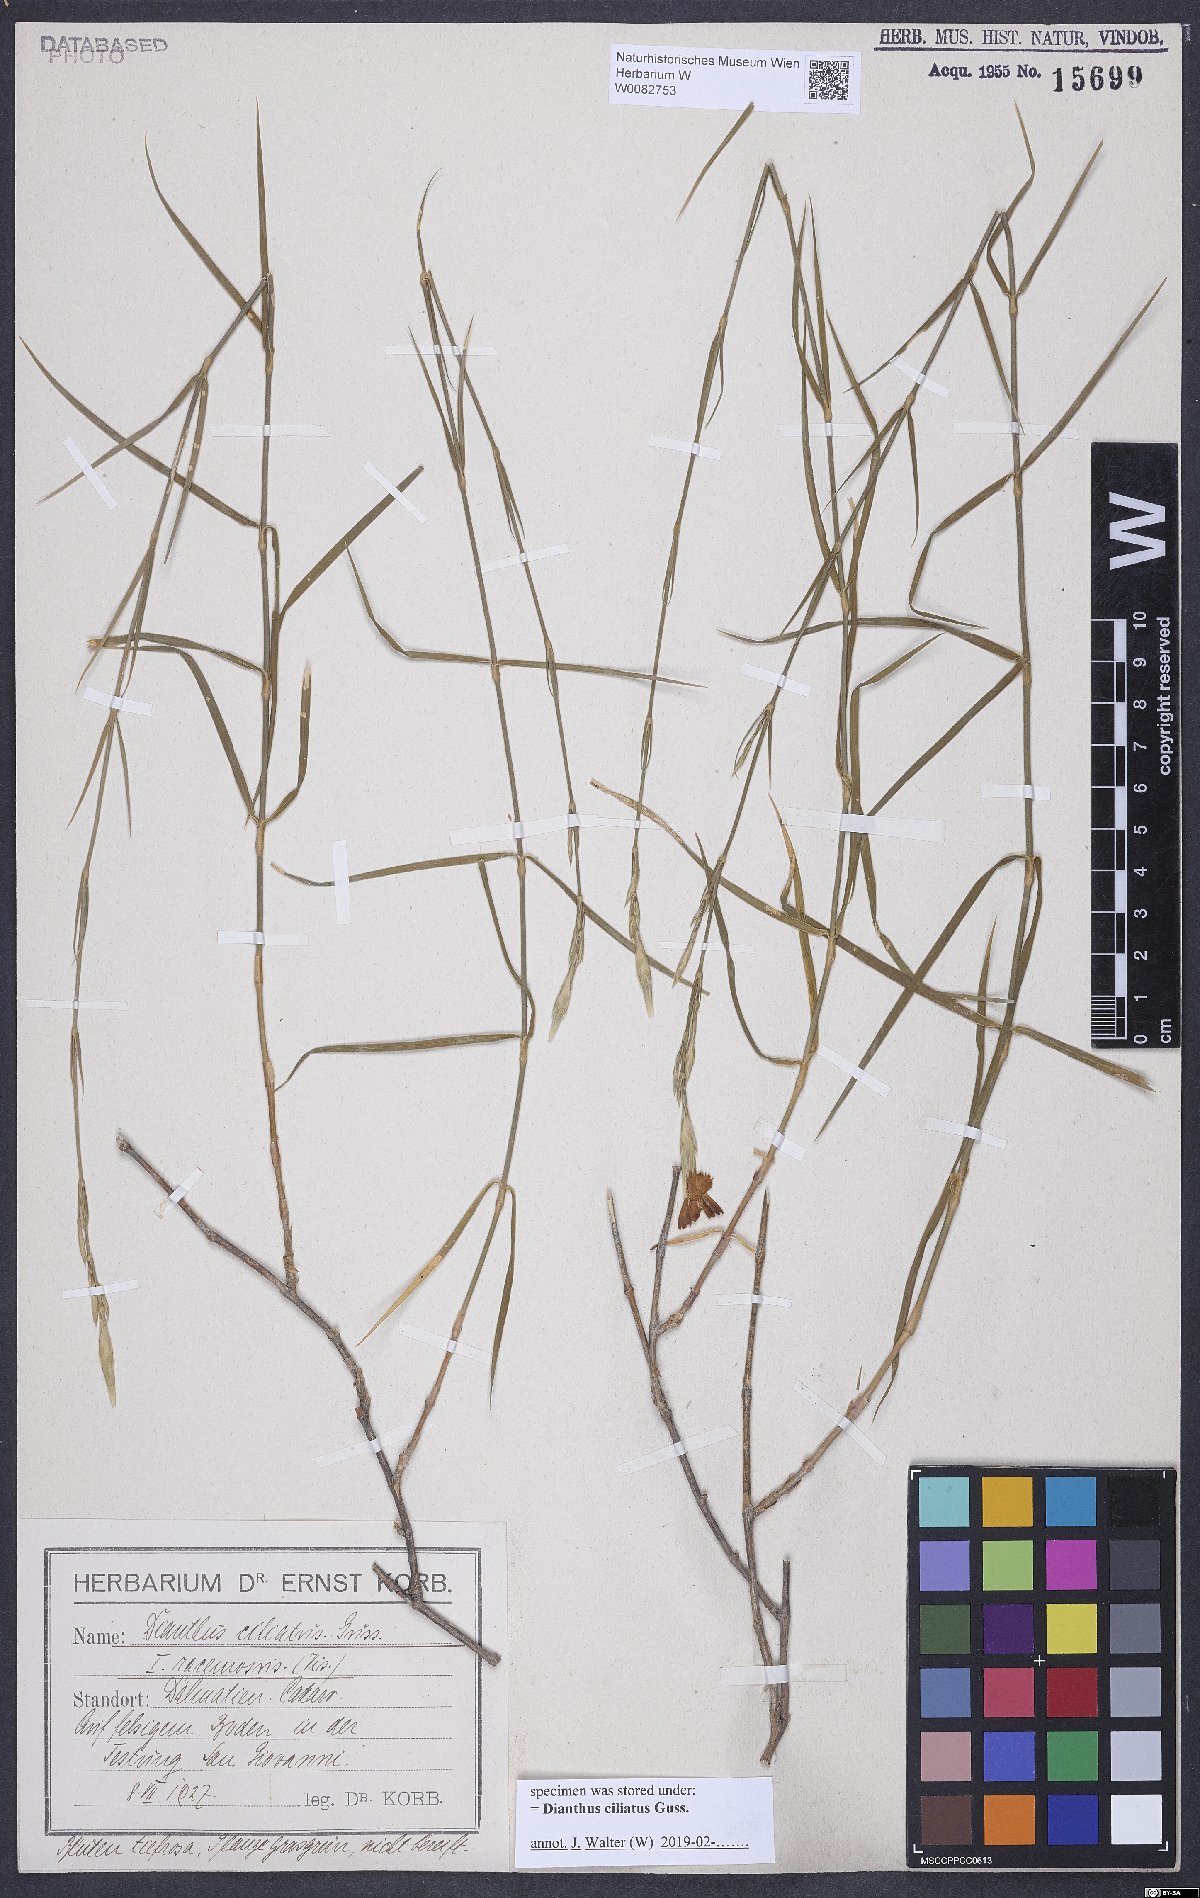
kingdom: Plantae
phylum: Tracheophyta
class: Magnoliopsida
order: Caryophyllales
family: Caryophyllaceae
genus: Dianthus
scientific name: Dianthus ciliatus
